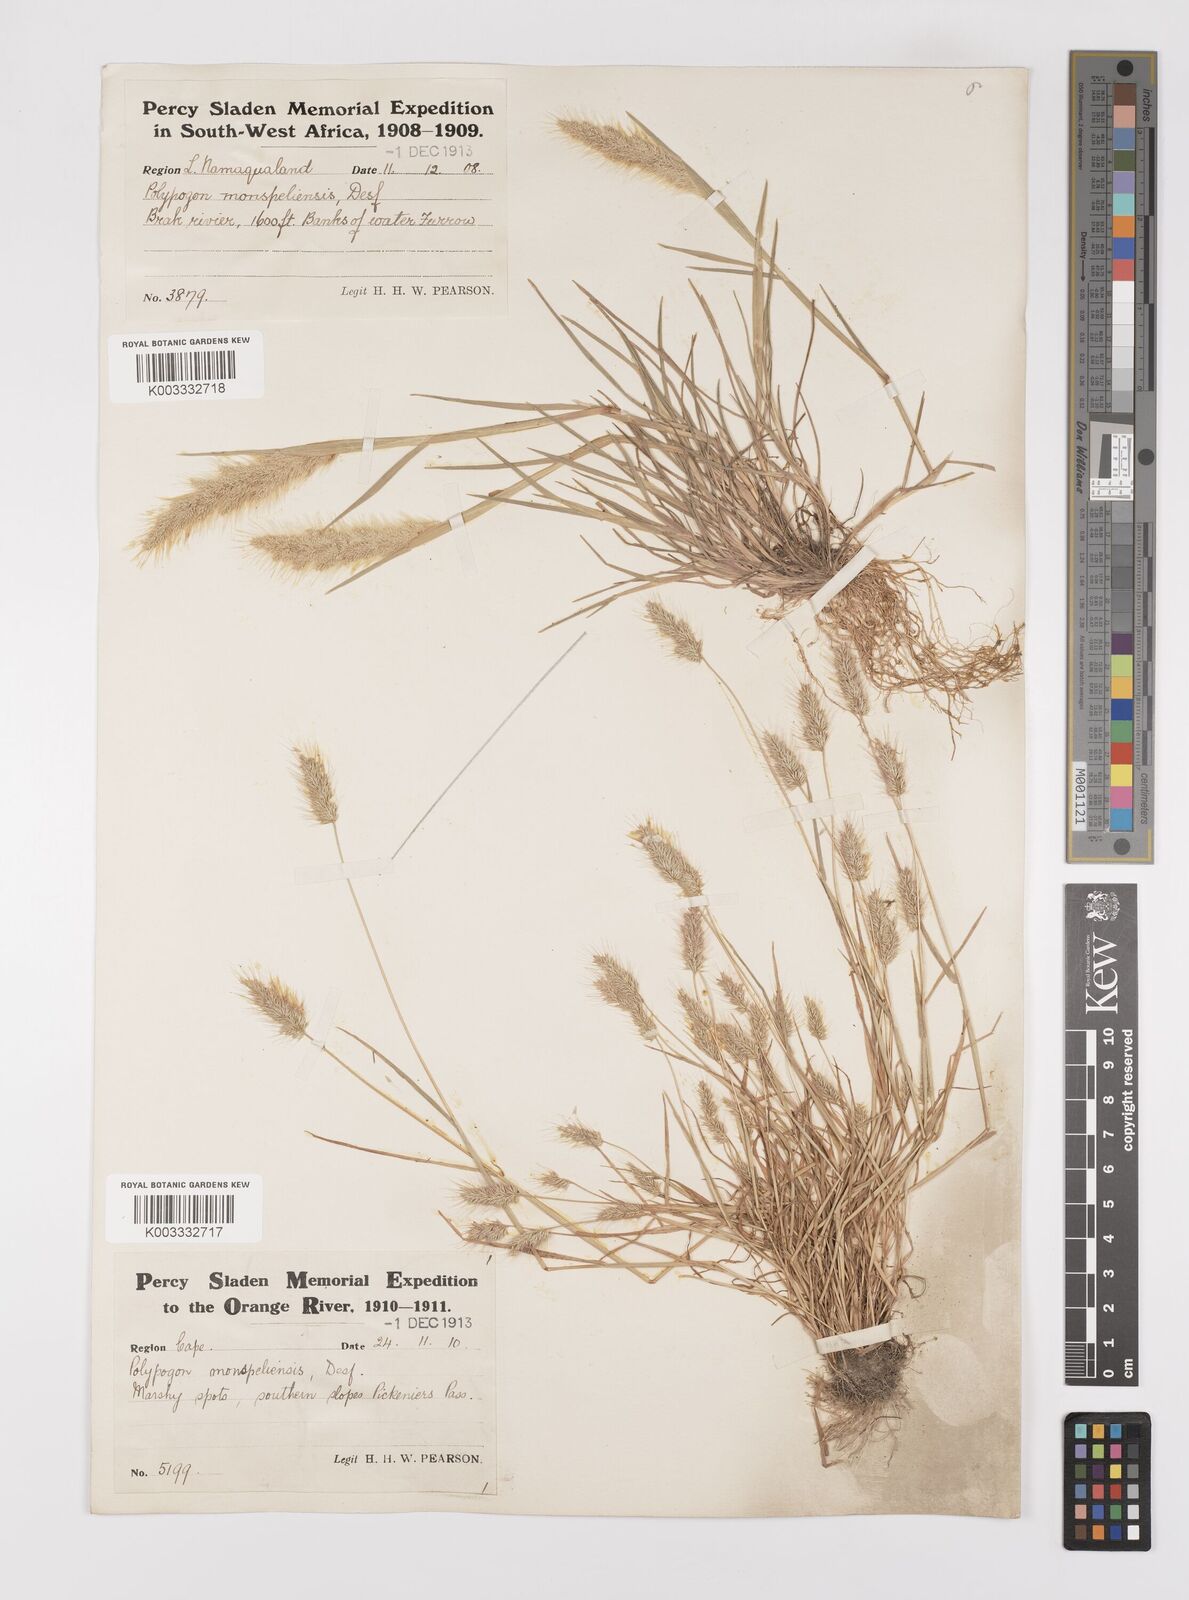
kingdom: Plantae
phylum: Tracheophyta
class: Liliopsida
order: Poales
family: Poaceae
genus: Polypogon
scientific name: Polypogon monspeliensis
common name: Annual rabbitsfoot grass
